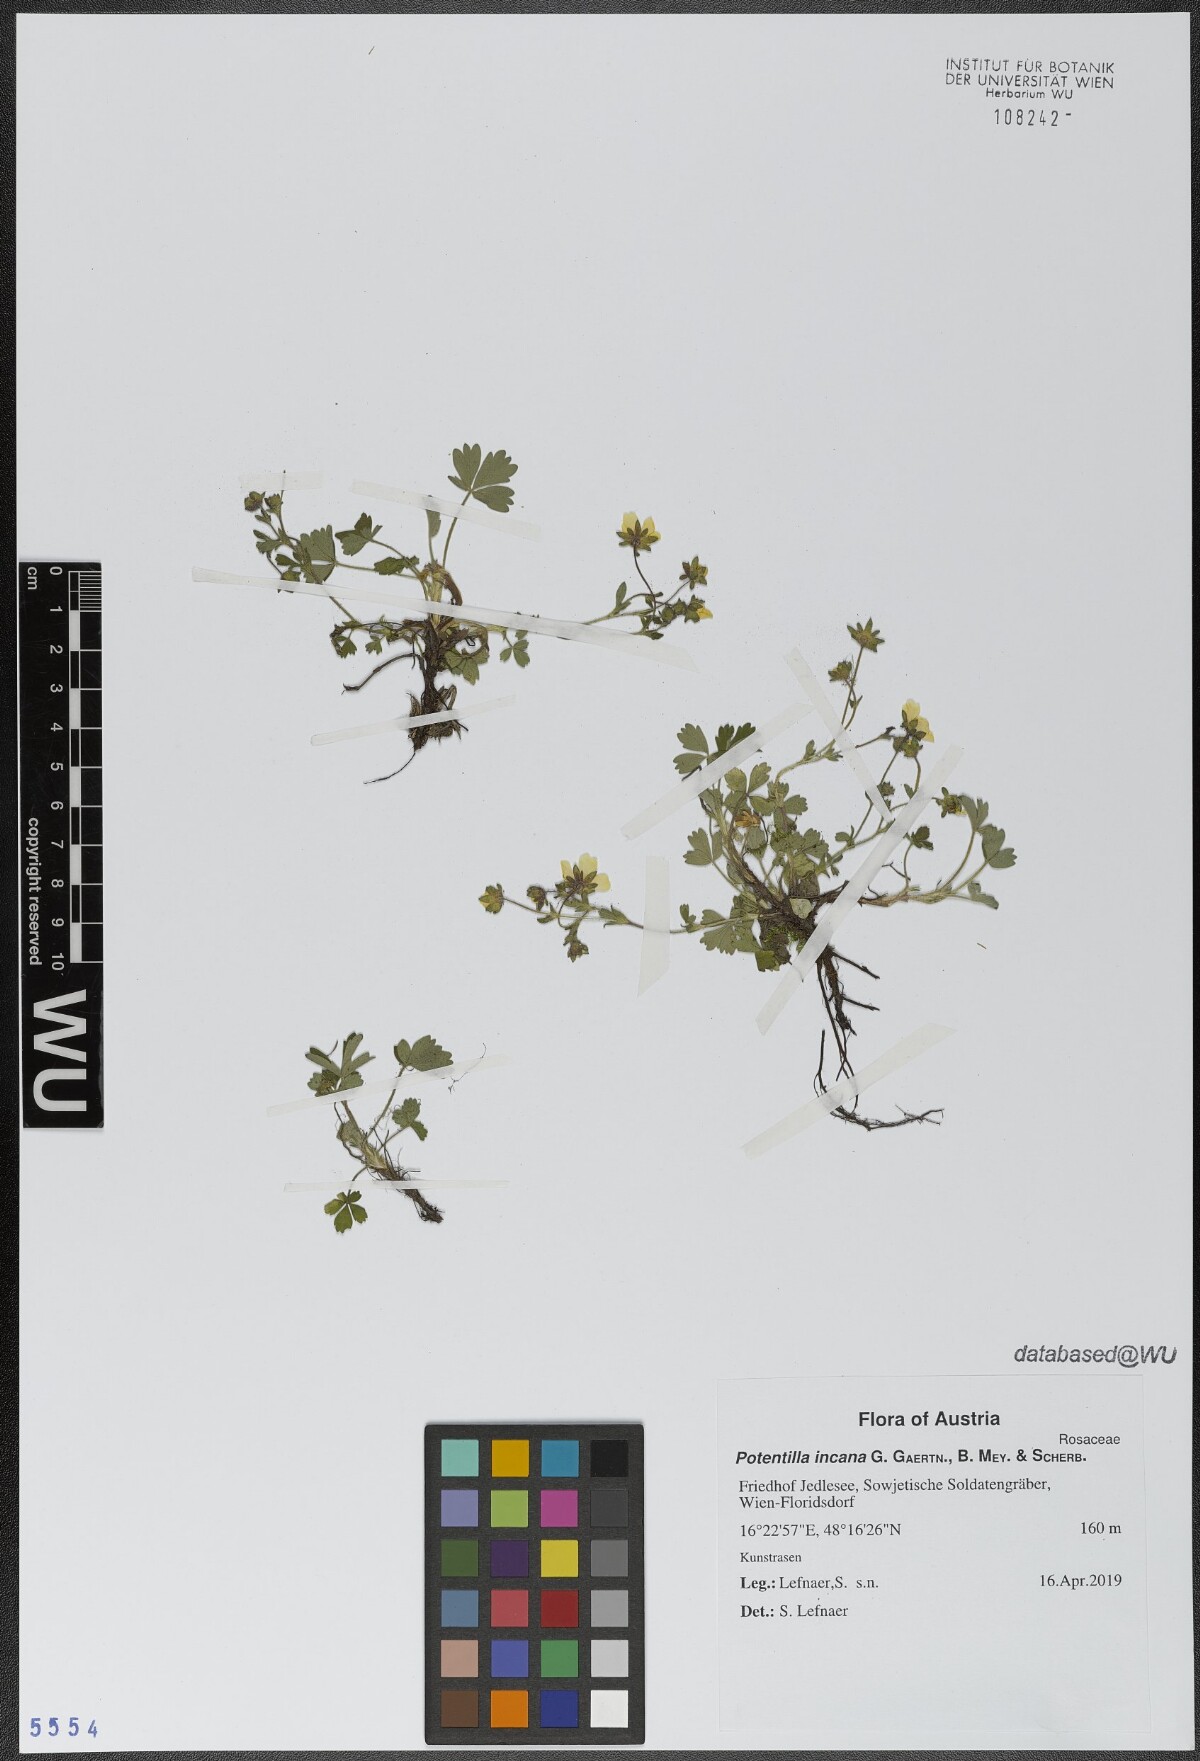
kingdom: Plantae
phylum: Tracheophyta
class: Magnoliopsida
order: Rosales
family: Rosaceae
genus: Potentilla
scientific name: Potentilla cinerea
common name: Ashy cinquefoil
